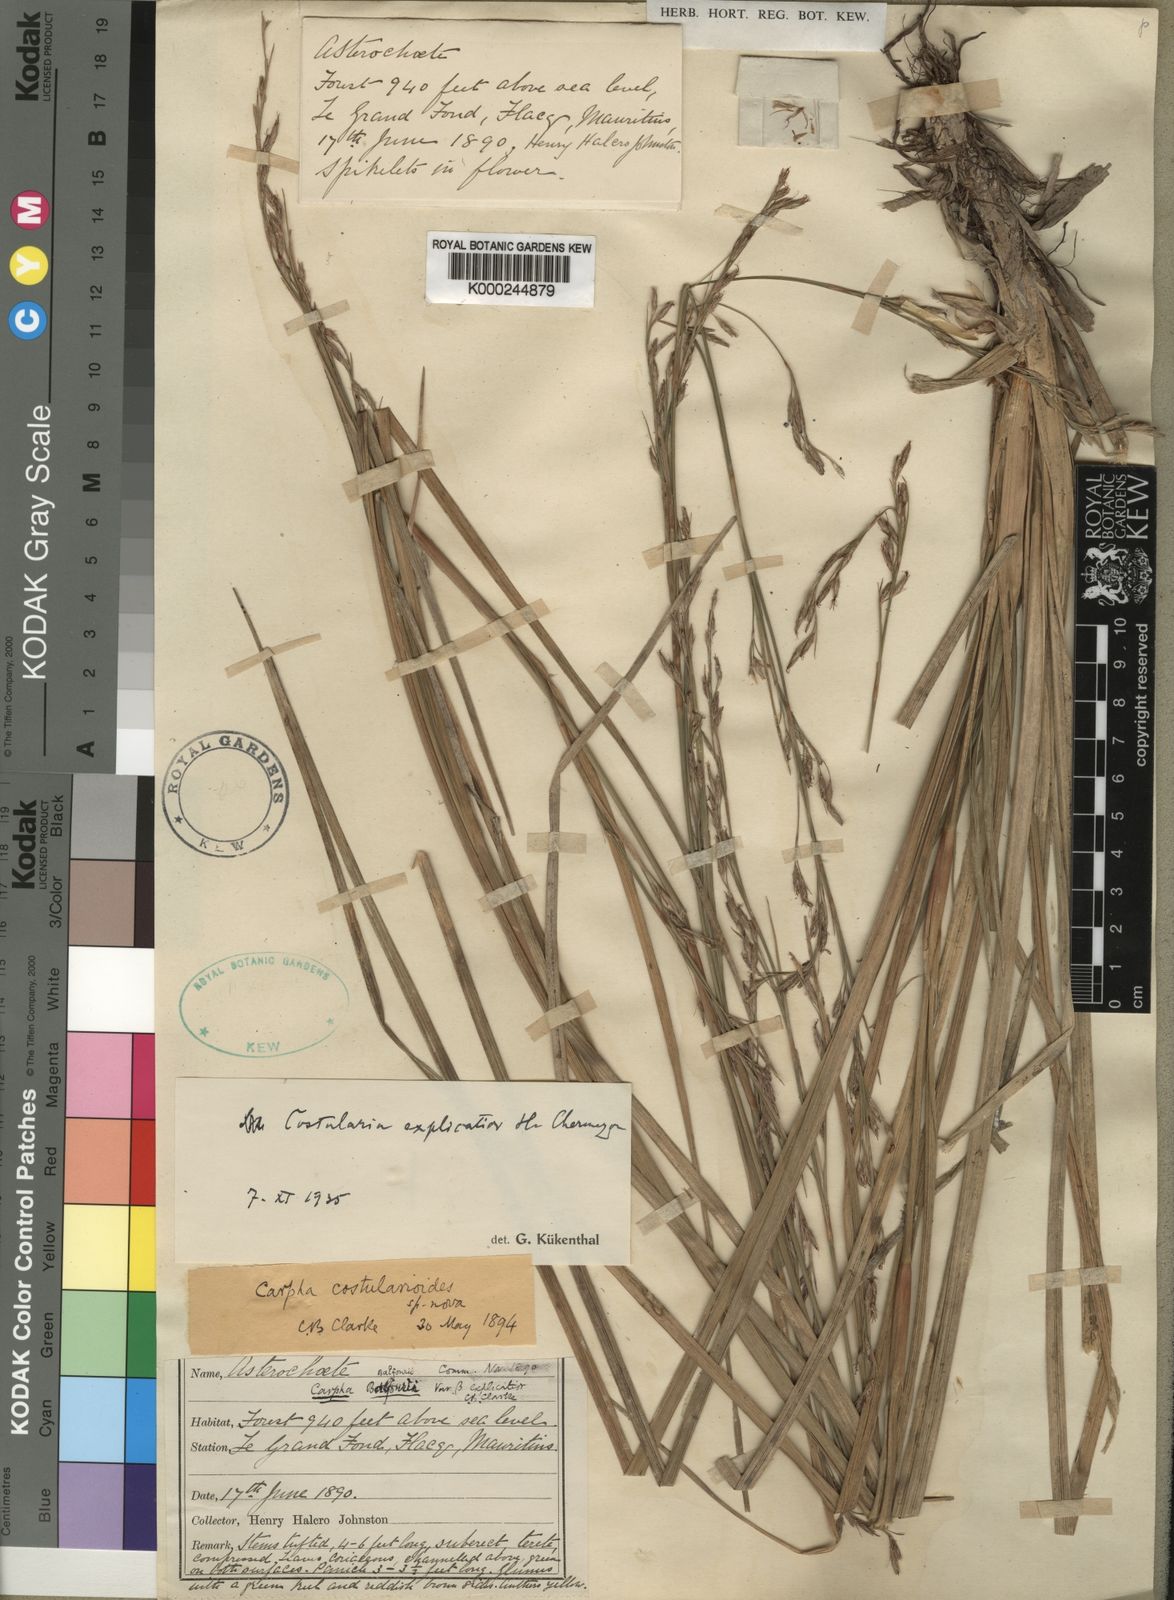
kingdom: Plantae
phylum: Tracheophyta
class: Liliopsida
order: Poales
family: Cyperaceae
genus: Costularia
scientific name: Costularia
